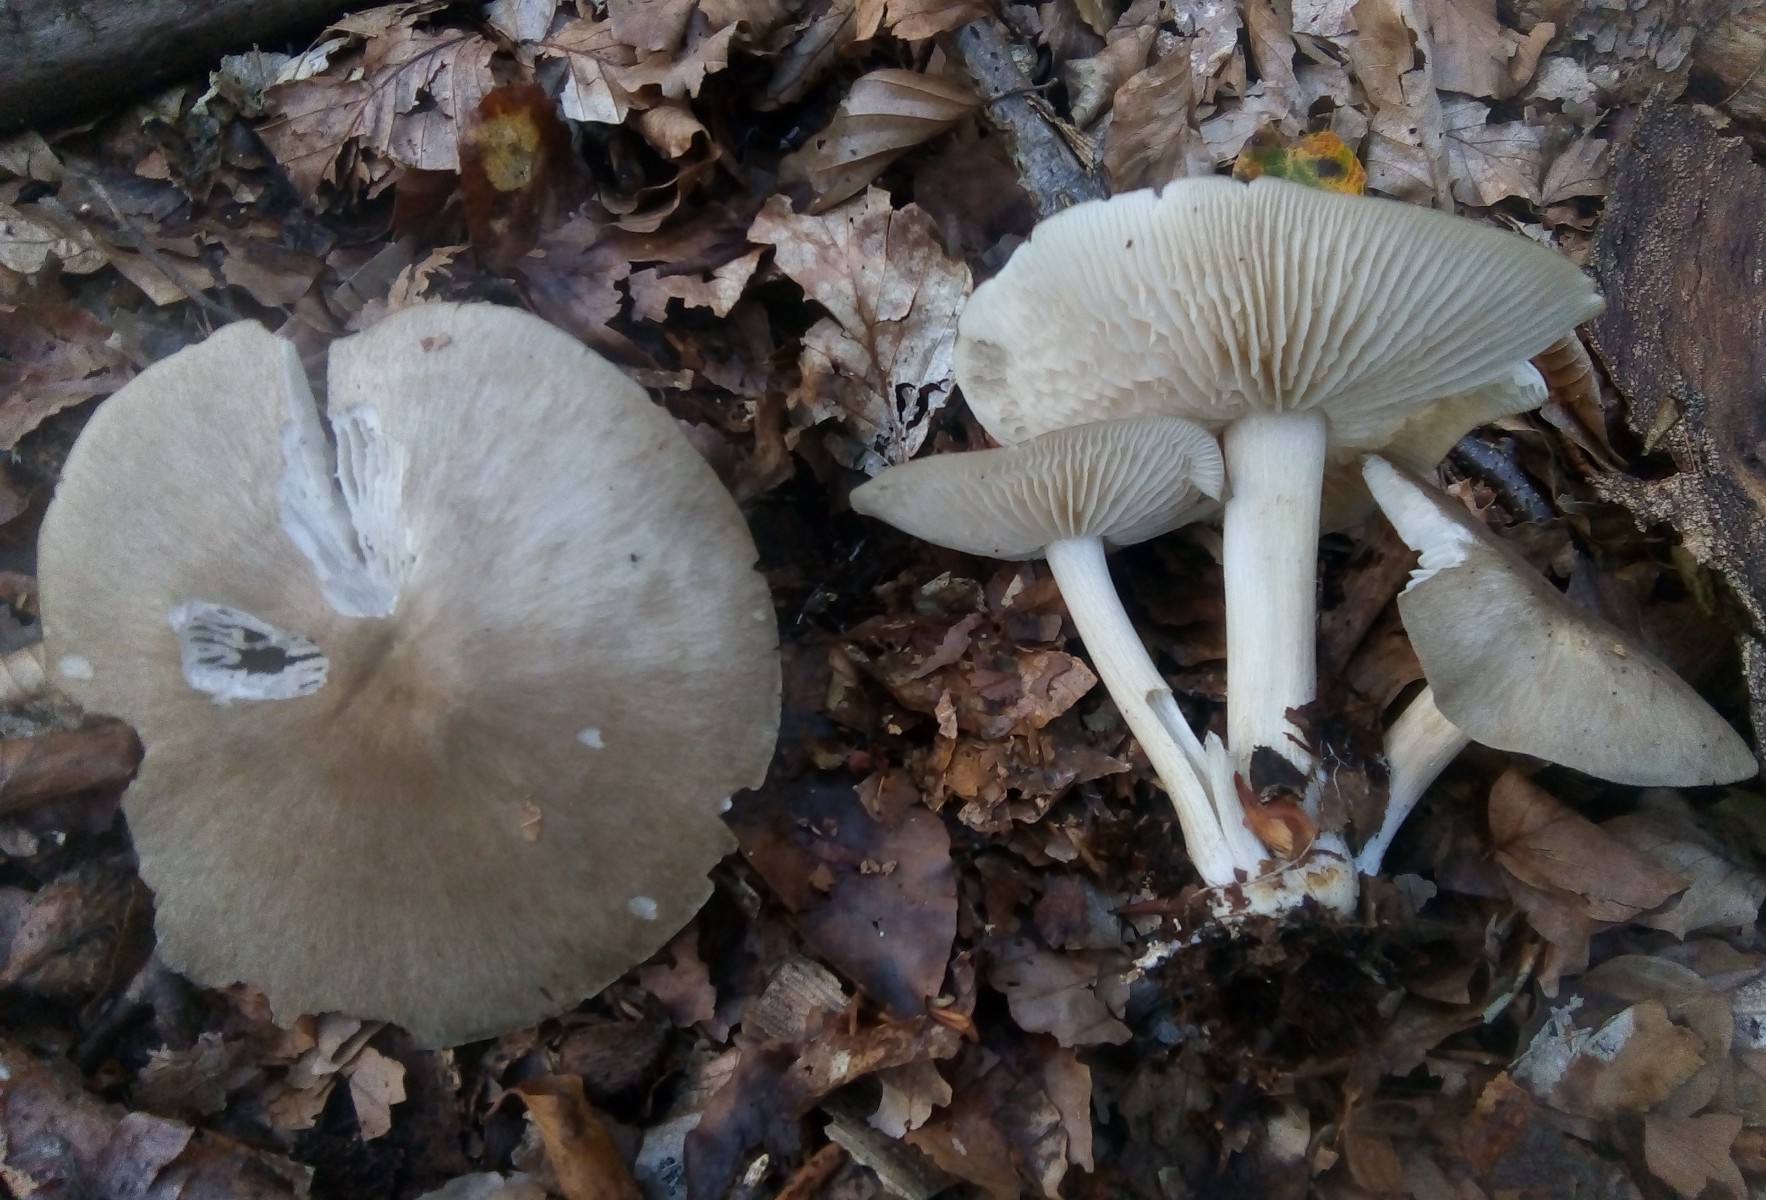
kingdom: Fungi
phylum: Basidiomycota
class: Agaricomycetes
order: Agaricales
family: Tricholomataceae
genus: Megacollybia
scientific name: Megacollybia platyphylla
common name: bredbladet væbnerhat
